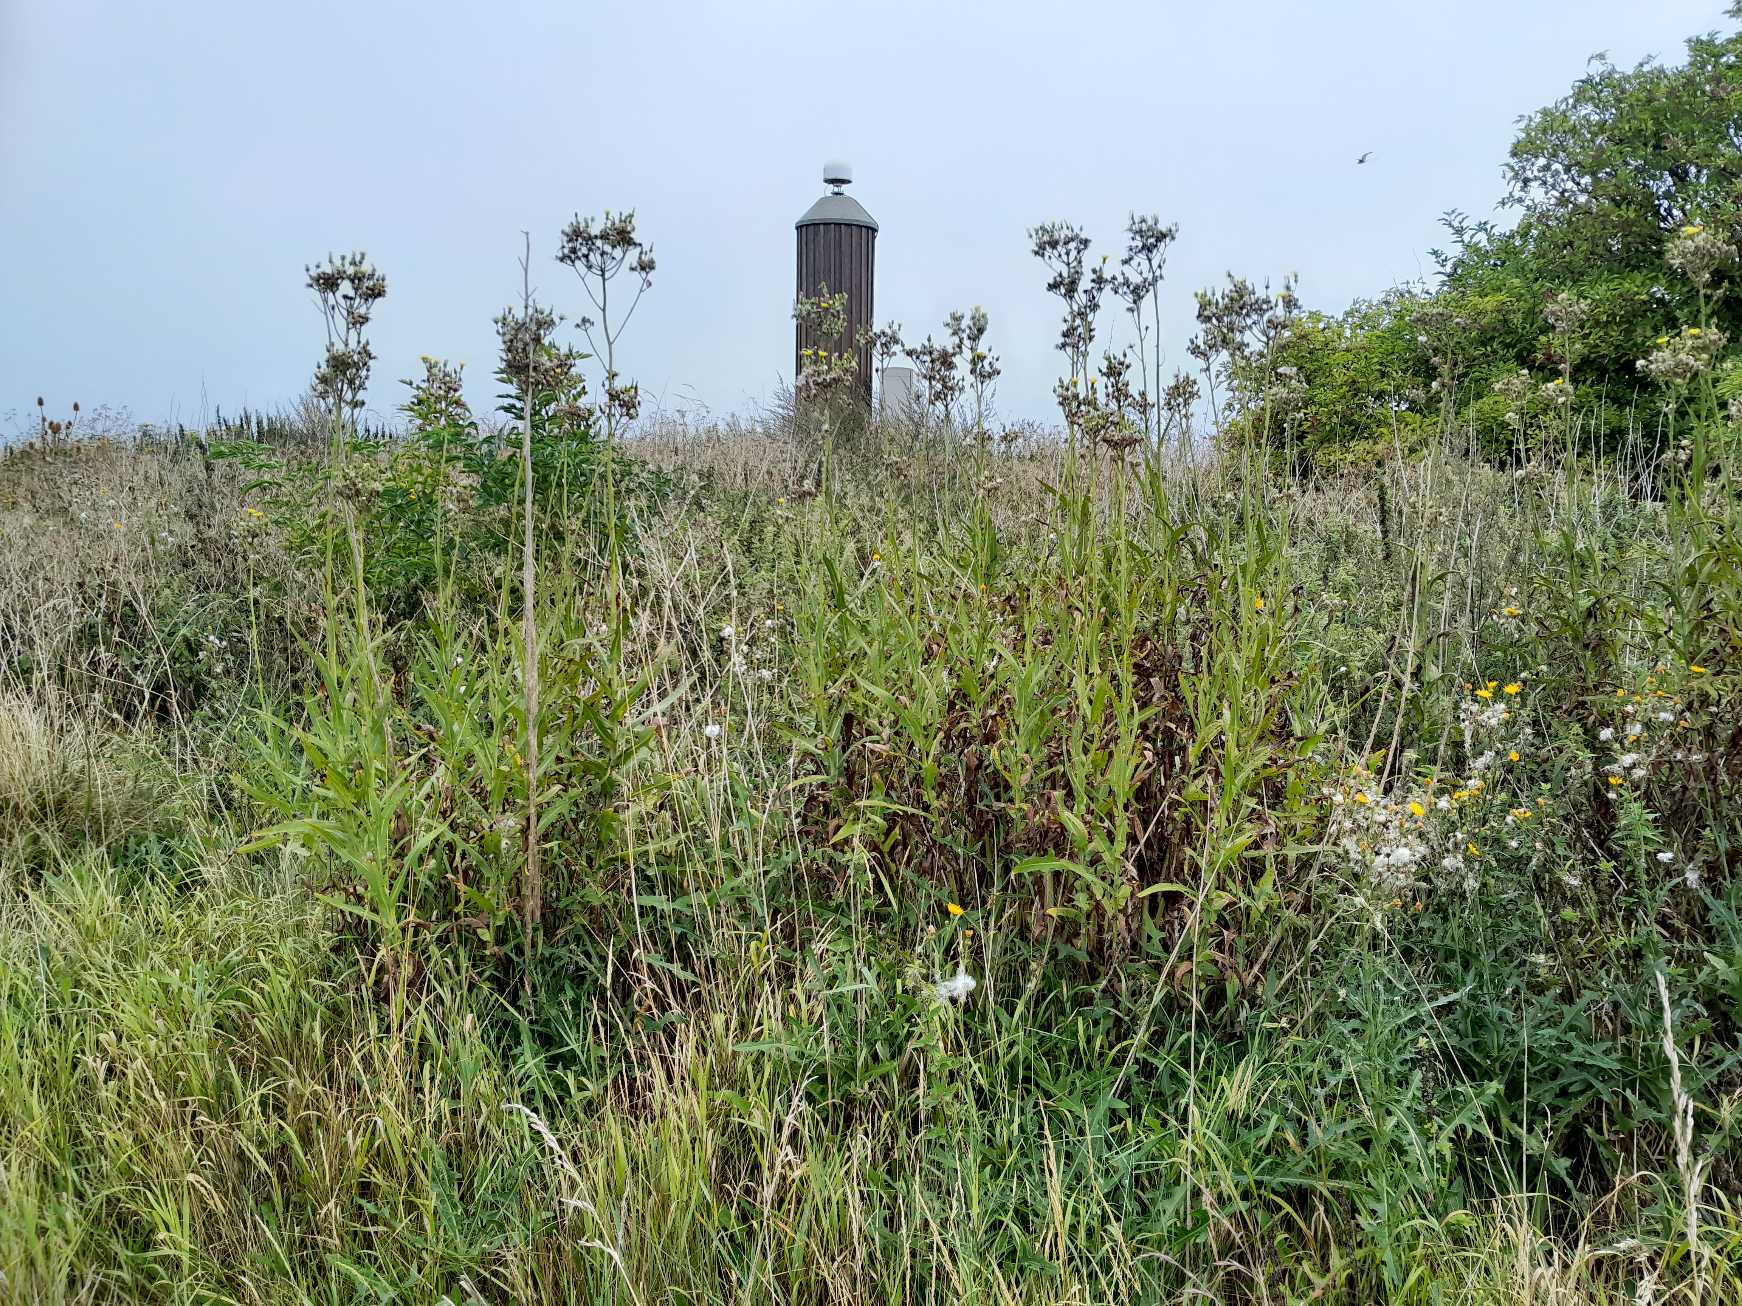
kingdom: Plantae
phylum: Tracheophyta
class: Magnoliopsida
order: Asterales
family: Asteraceae
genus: Sonchus
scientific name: Sonchus palustris
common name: Kær-svinemælk
